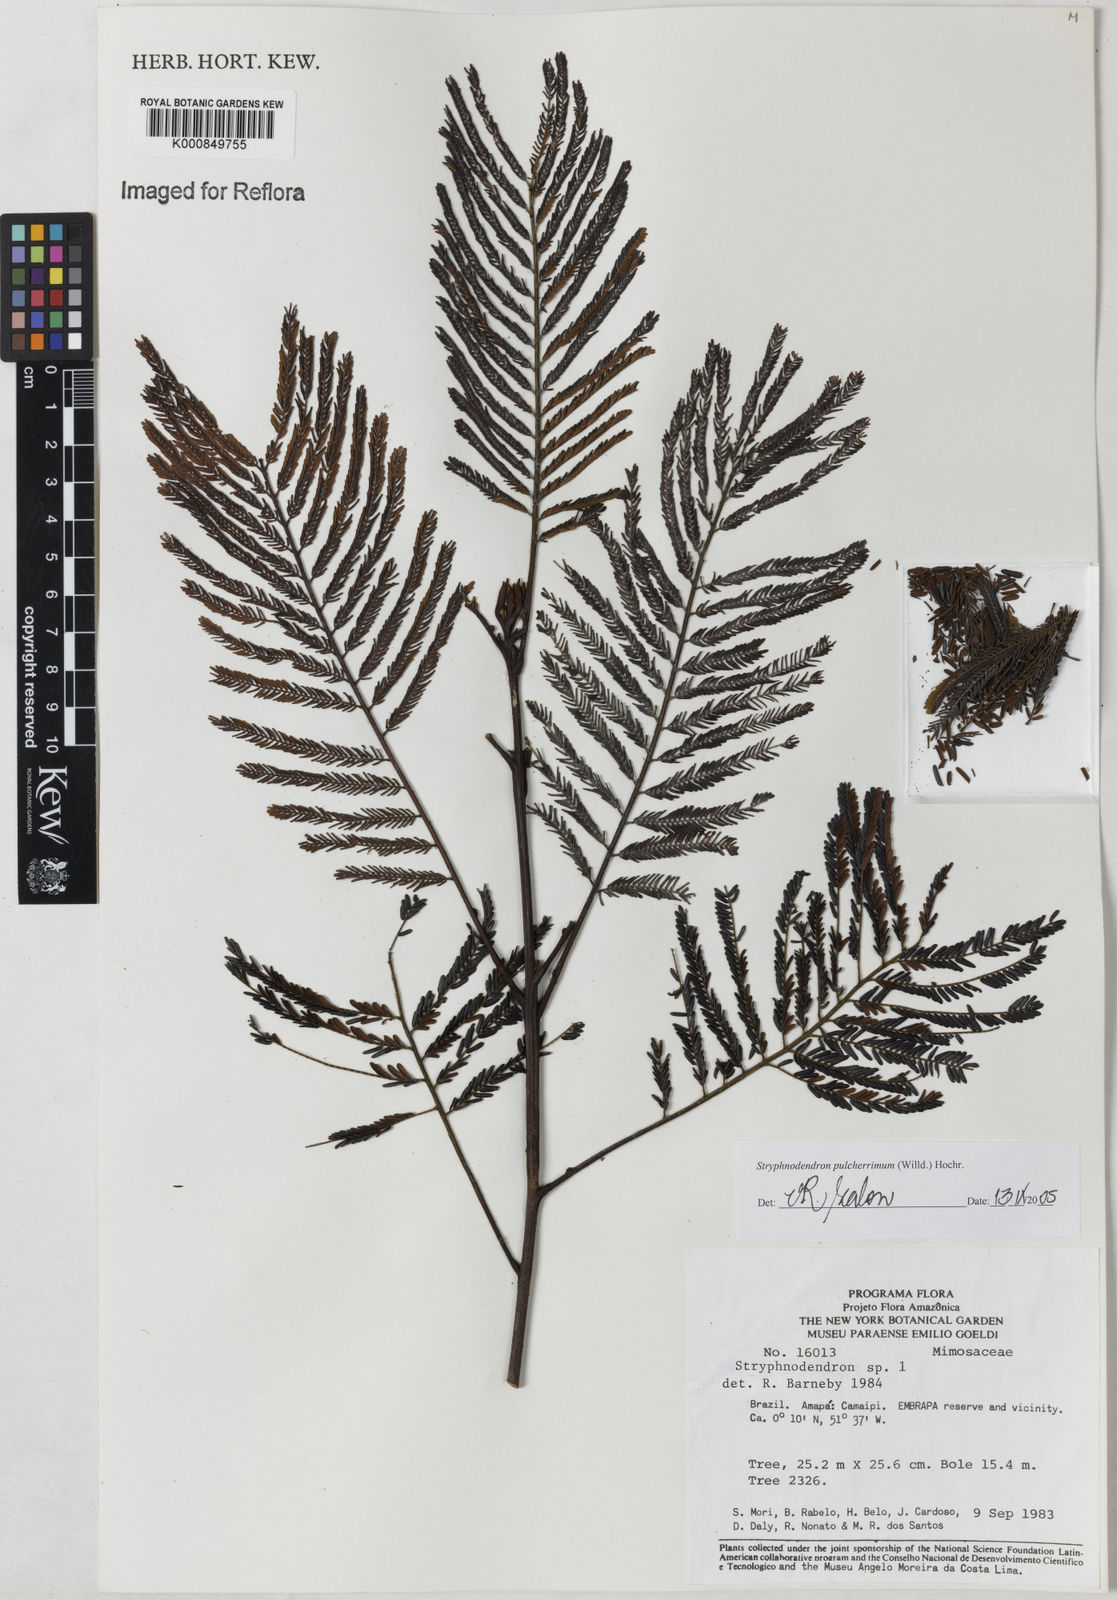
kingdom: Plantae
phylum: Tracheophyta
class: Magnoliopsida
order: Fabales
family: Fabaceae
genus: Stryphnodendron
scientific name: Stryphnodendron pulcherrimum
